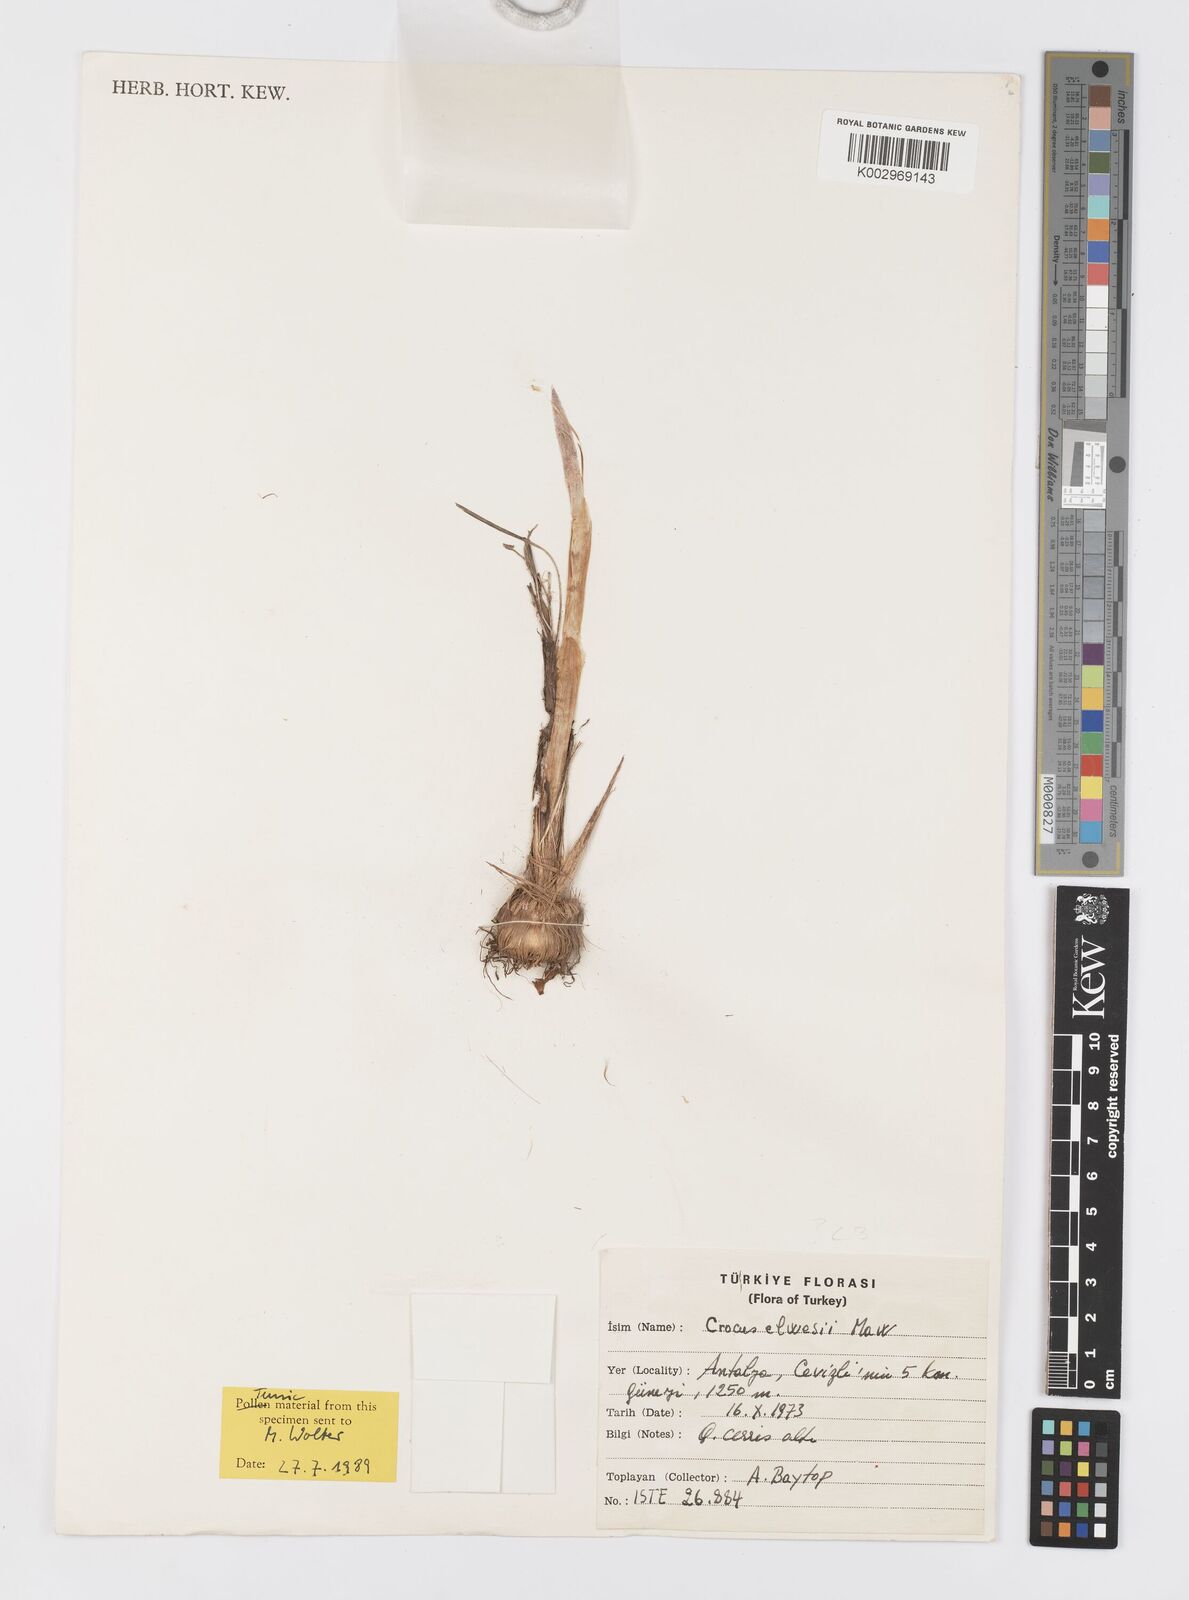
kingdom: Plantae
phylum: Tracheophyta
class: Liliopsida
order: Asparagales
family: Iridaceae
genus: Crocus
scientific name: Crocus asumaniae
